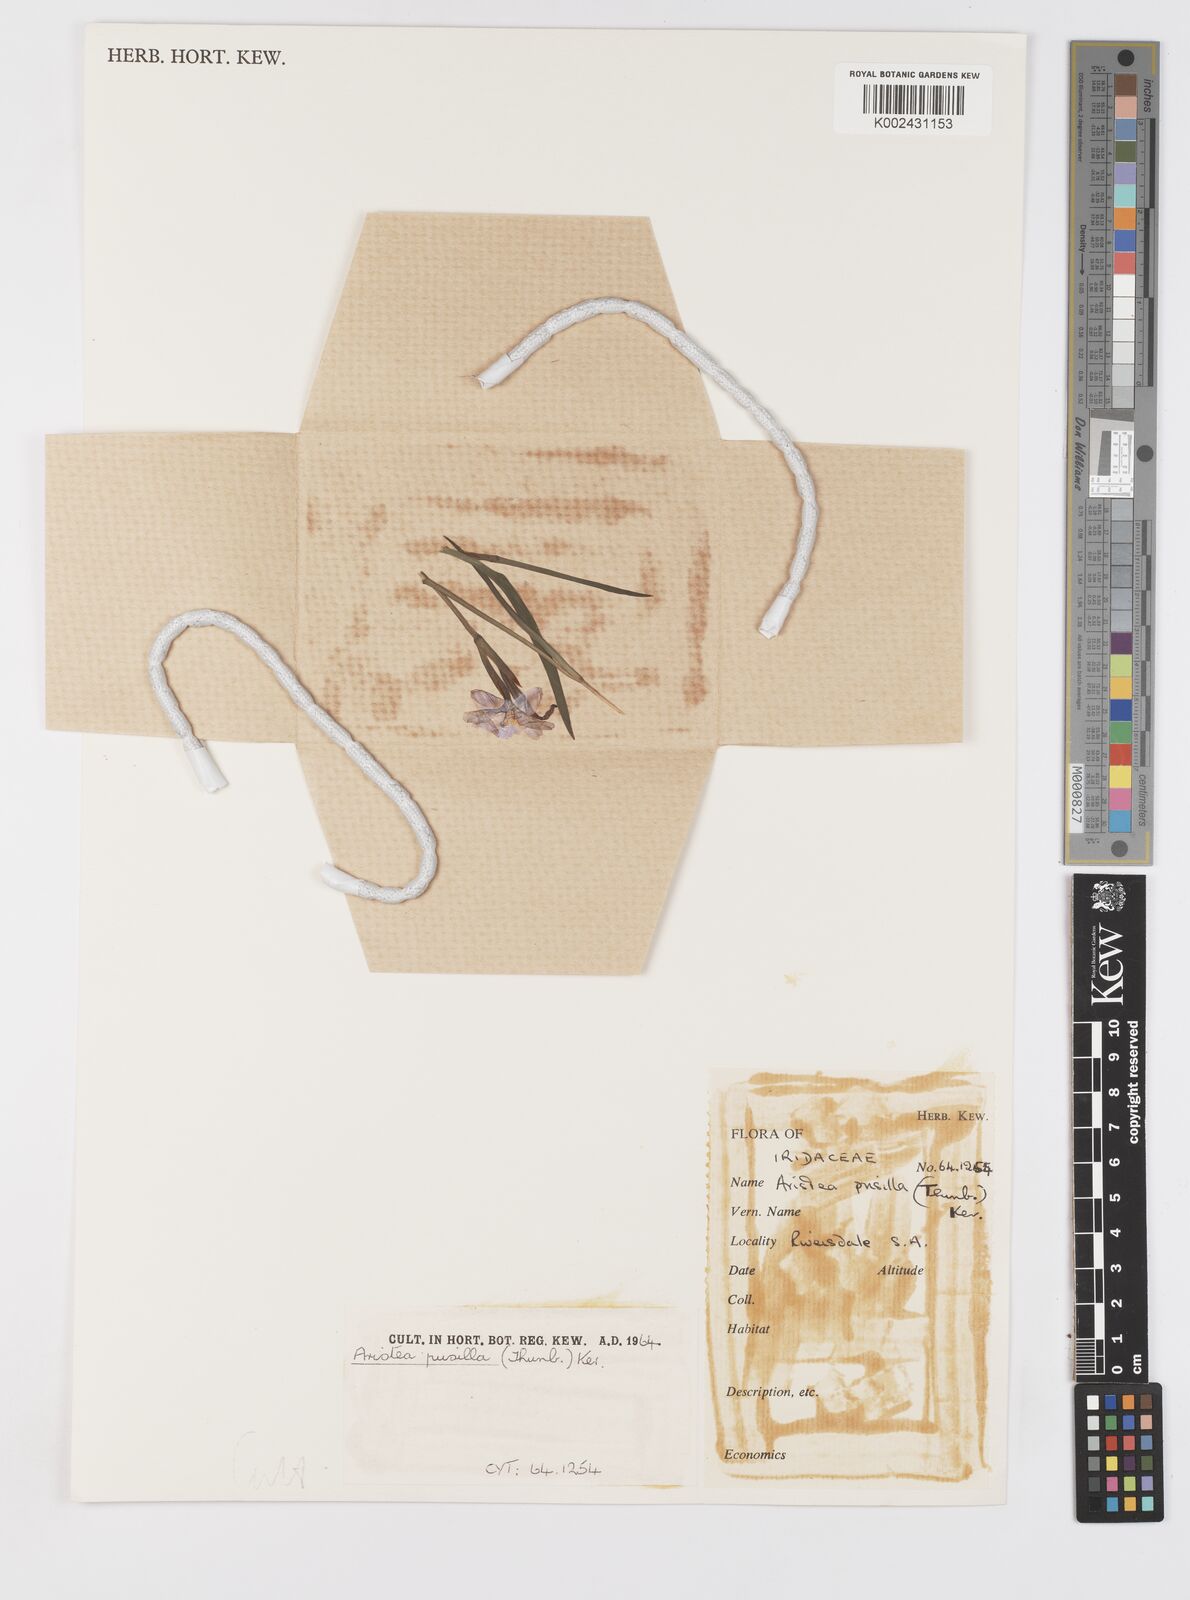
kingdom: Plantae
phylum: Tracheophyta
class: Liliopsida
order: Asparagales
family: Iridaceae
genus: Aristea
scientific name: Aristea pusilla
